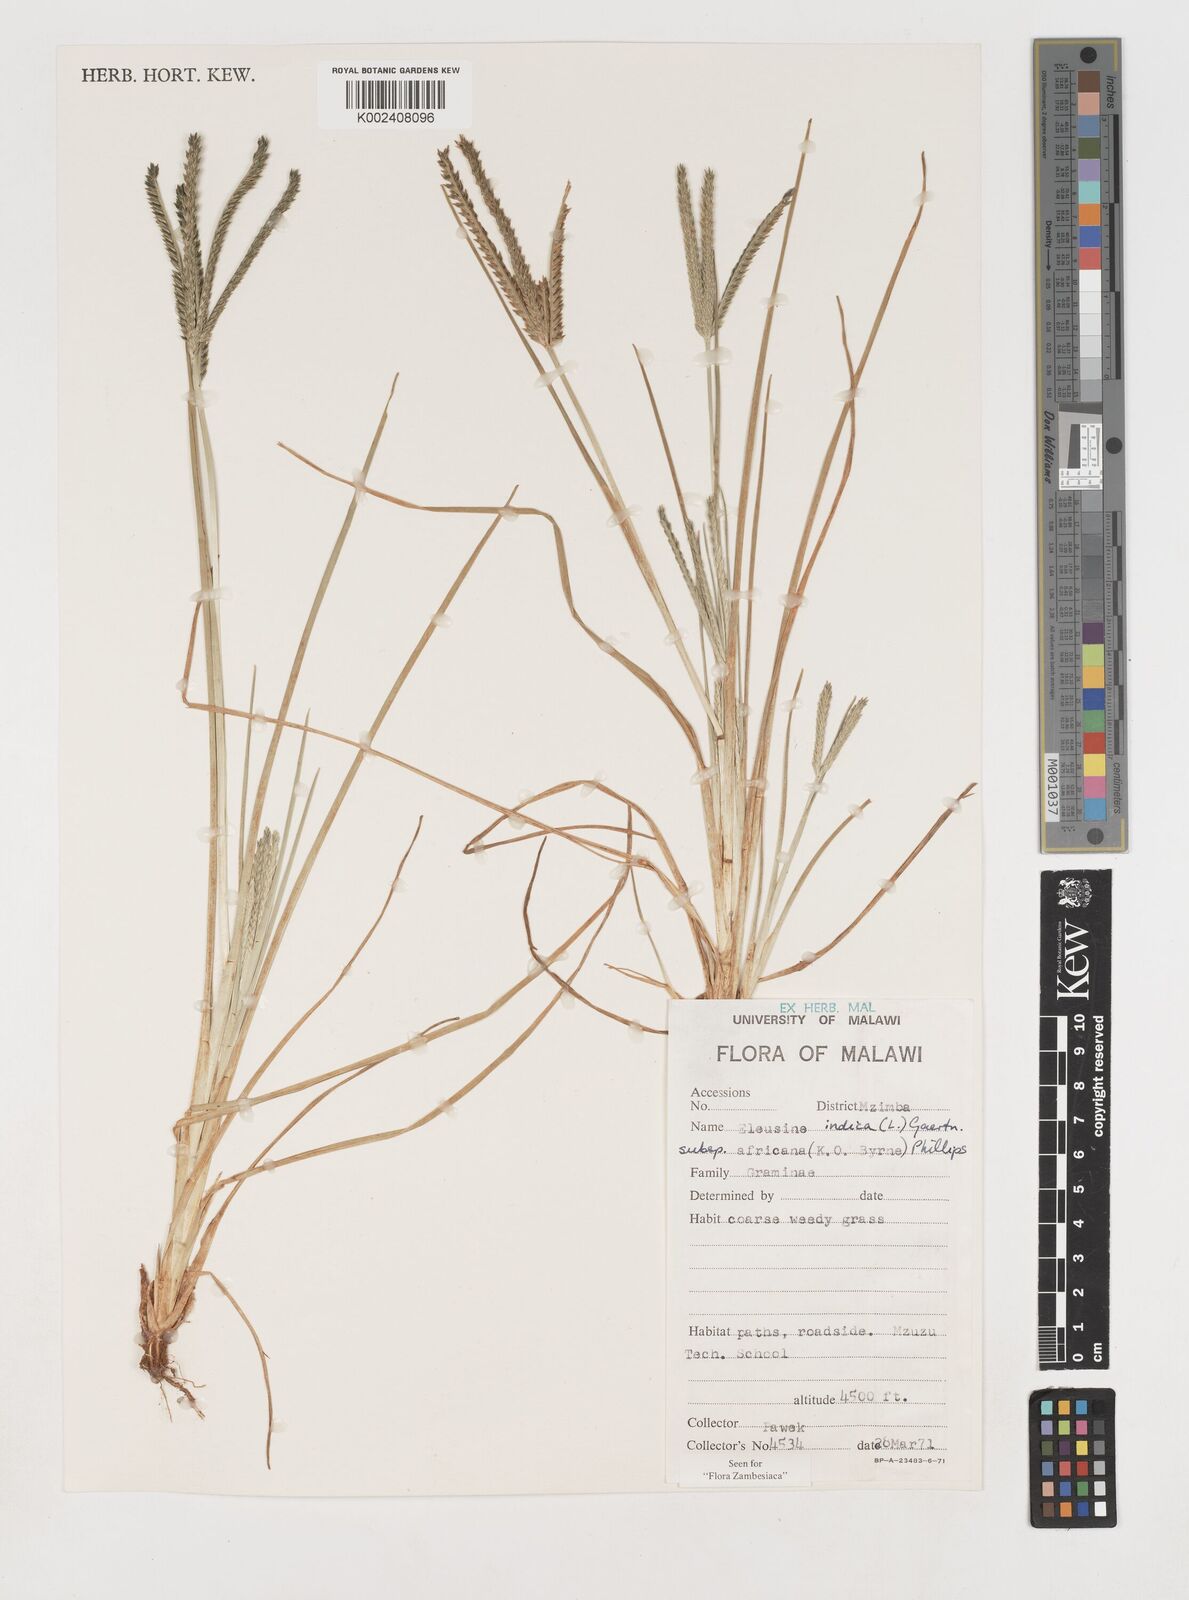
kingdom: Plantae
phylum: Tracheophyta
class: Liliopsida
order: Poales
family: Poaceae
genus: Eleusine
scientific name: Eleusine africana
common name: Wild african finger millet
